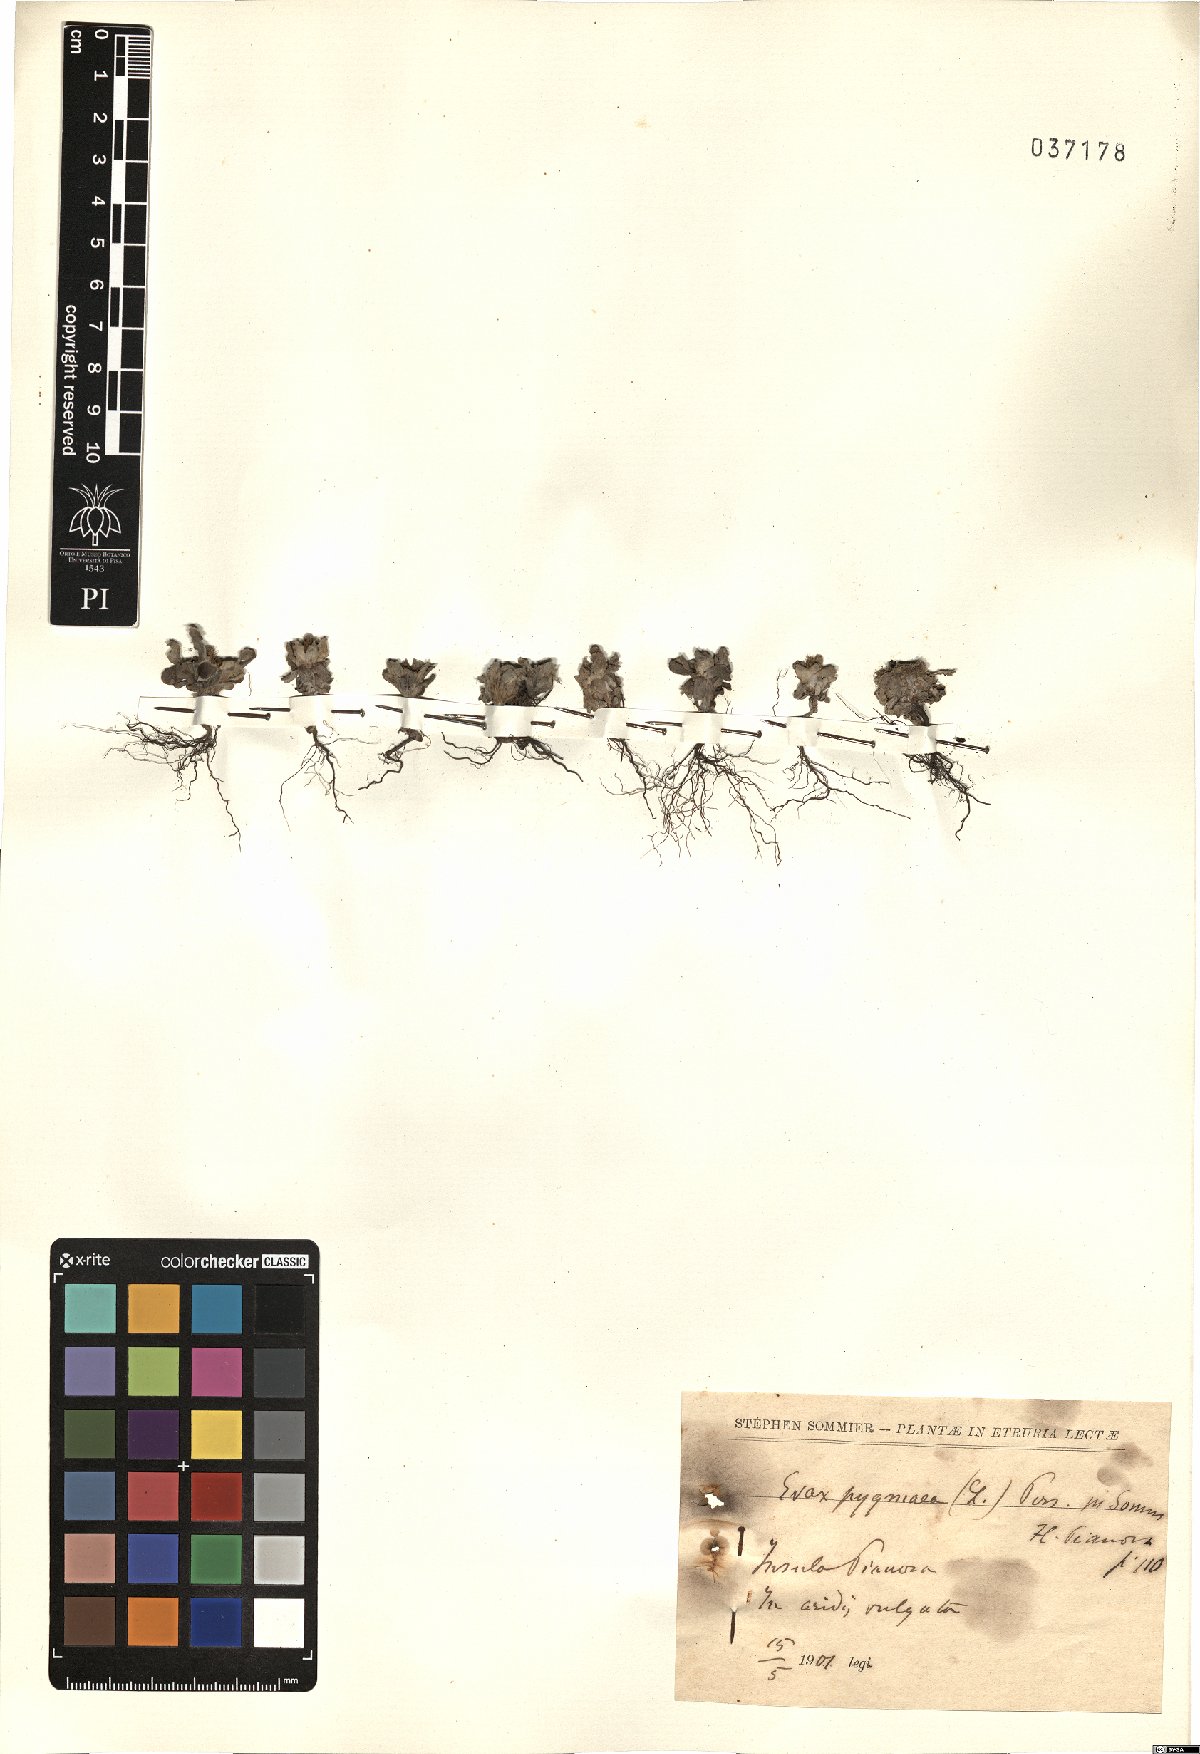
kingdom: Plantae
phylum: Tracheophyta
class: Magnoliopsida
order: Asterales
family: Asteraceae
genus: Filago
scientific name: Filago pygmaea
